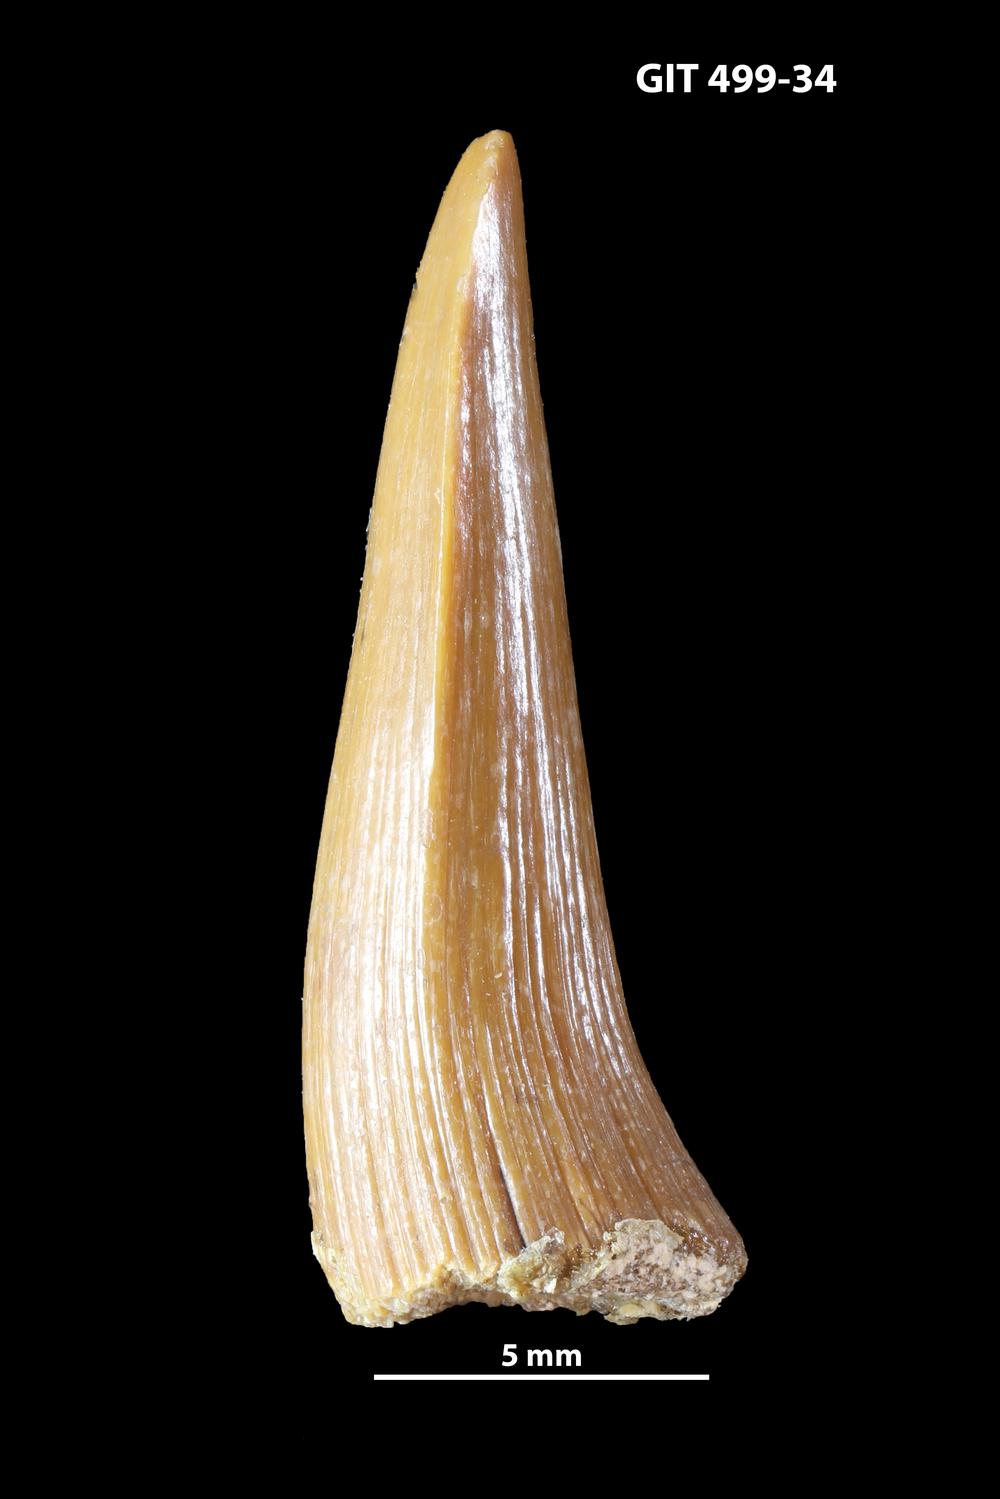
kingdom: Animalia
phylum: Chordata
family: Holoptychiidae
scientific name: Holoptychiidae
